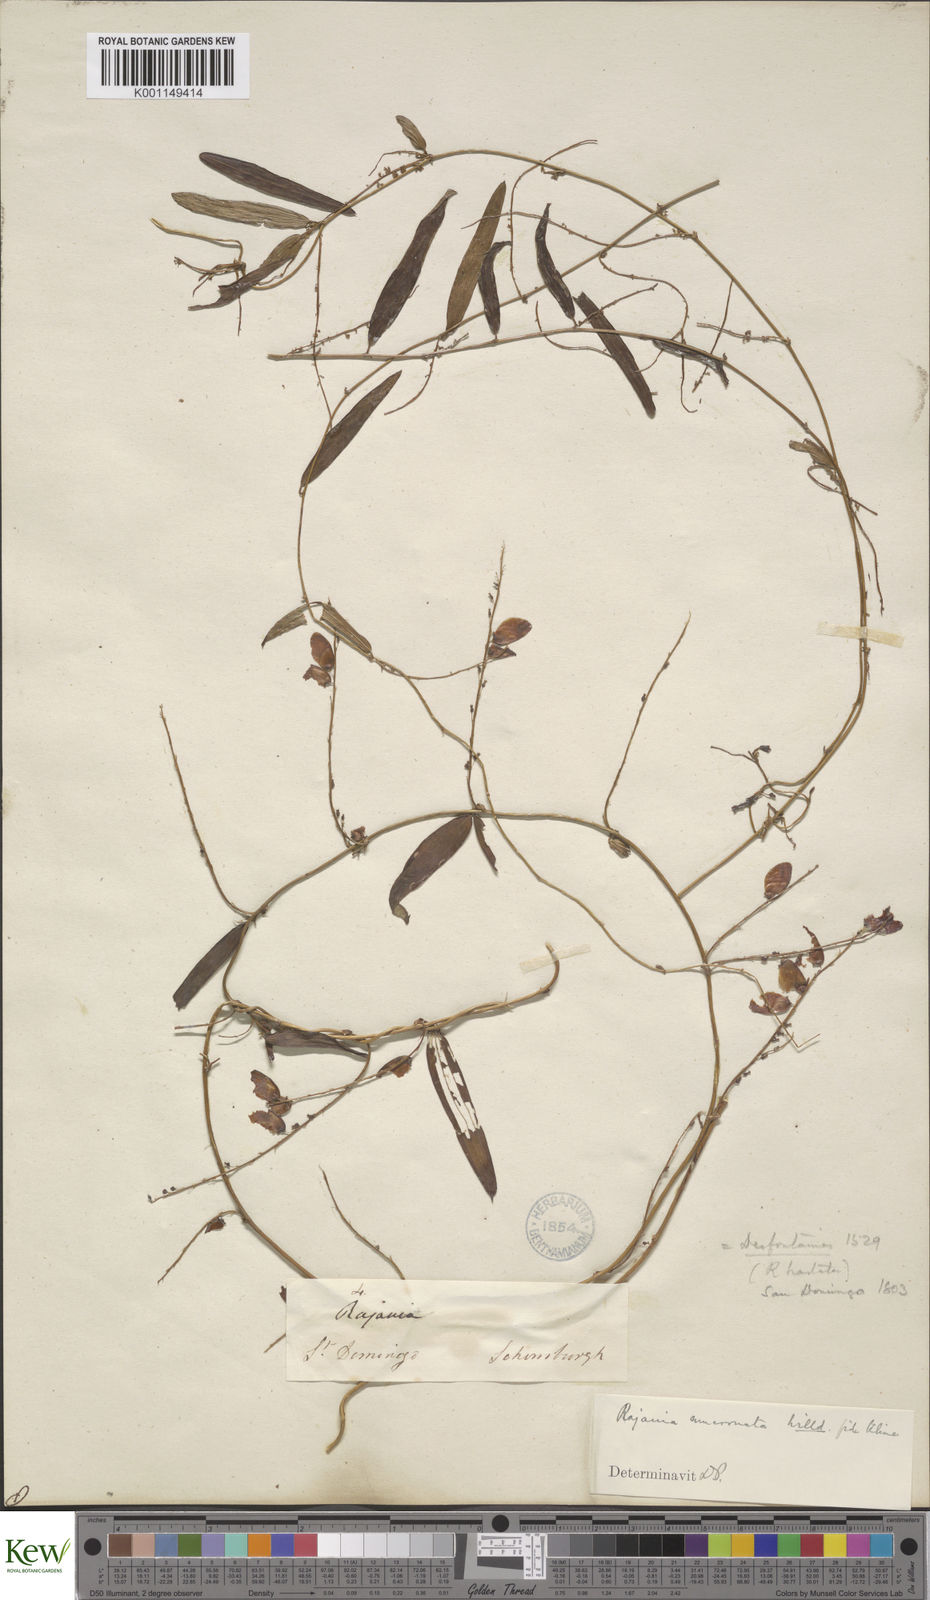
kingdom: Plantae
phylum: Tracheophyta
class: Liliopsida
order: Dioscoreales
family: Dioscoreaceae
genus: Dioscorea
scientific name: Dioscorea
